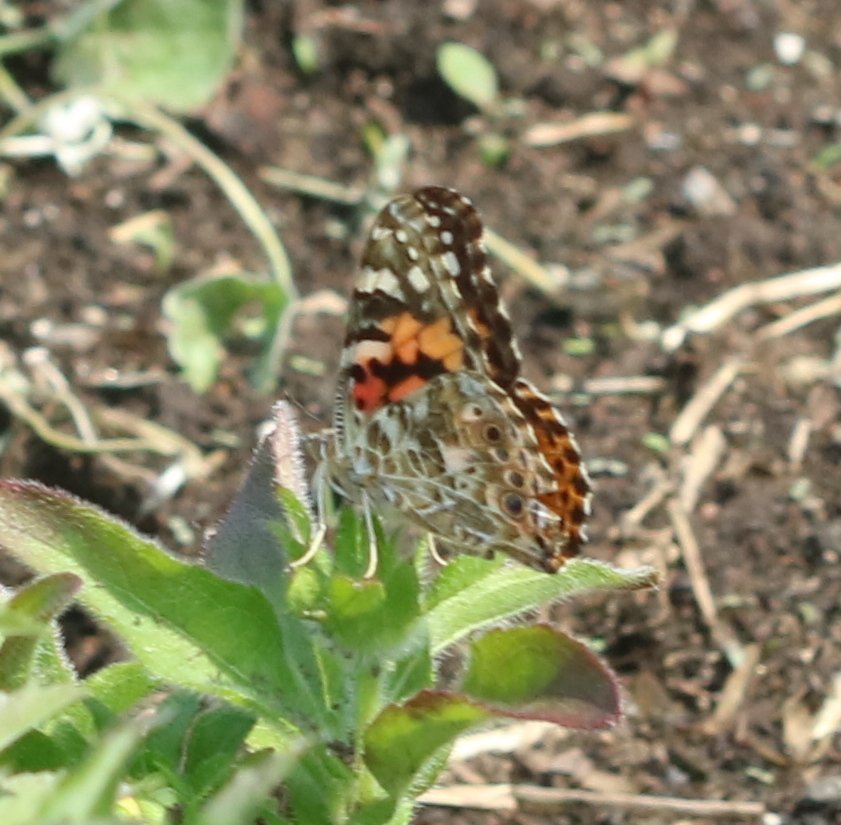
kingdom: Animalia
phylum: Arthropoda
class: Insecta
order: Lepidoptera
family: Nymphalidae
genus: Vanessa
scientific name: Vanessa cardui
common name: Painted Lady
